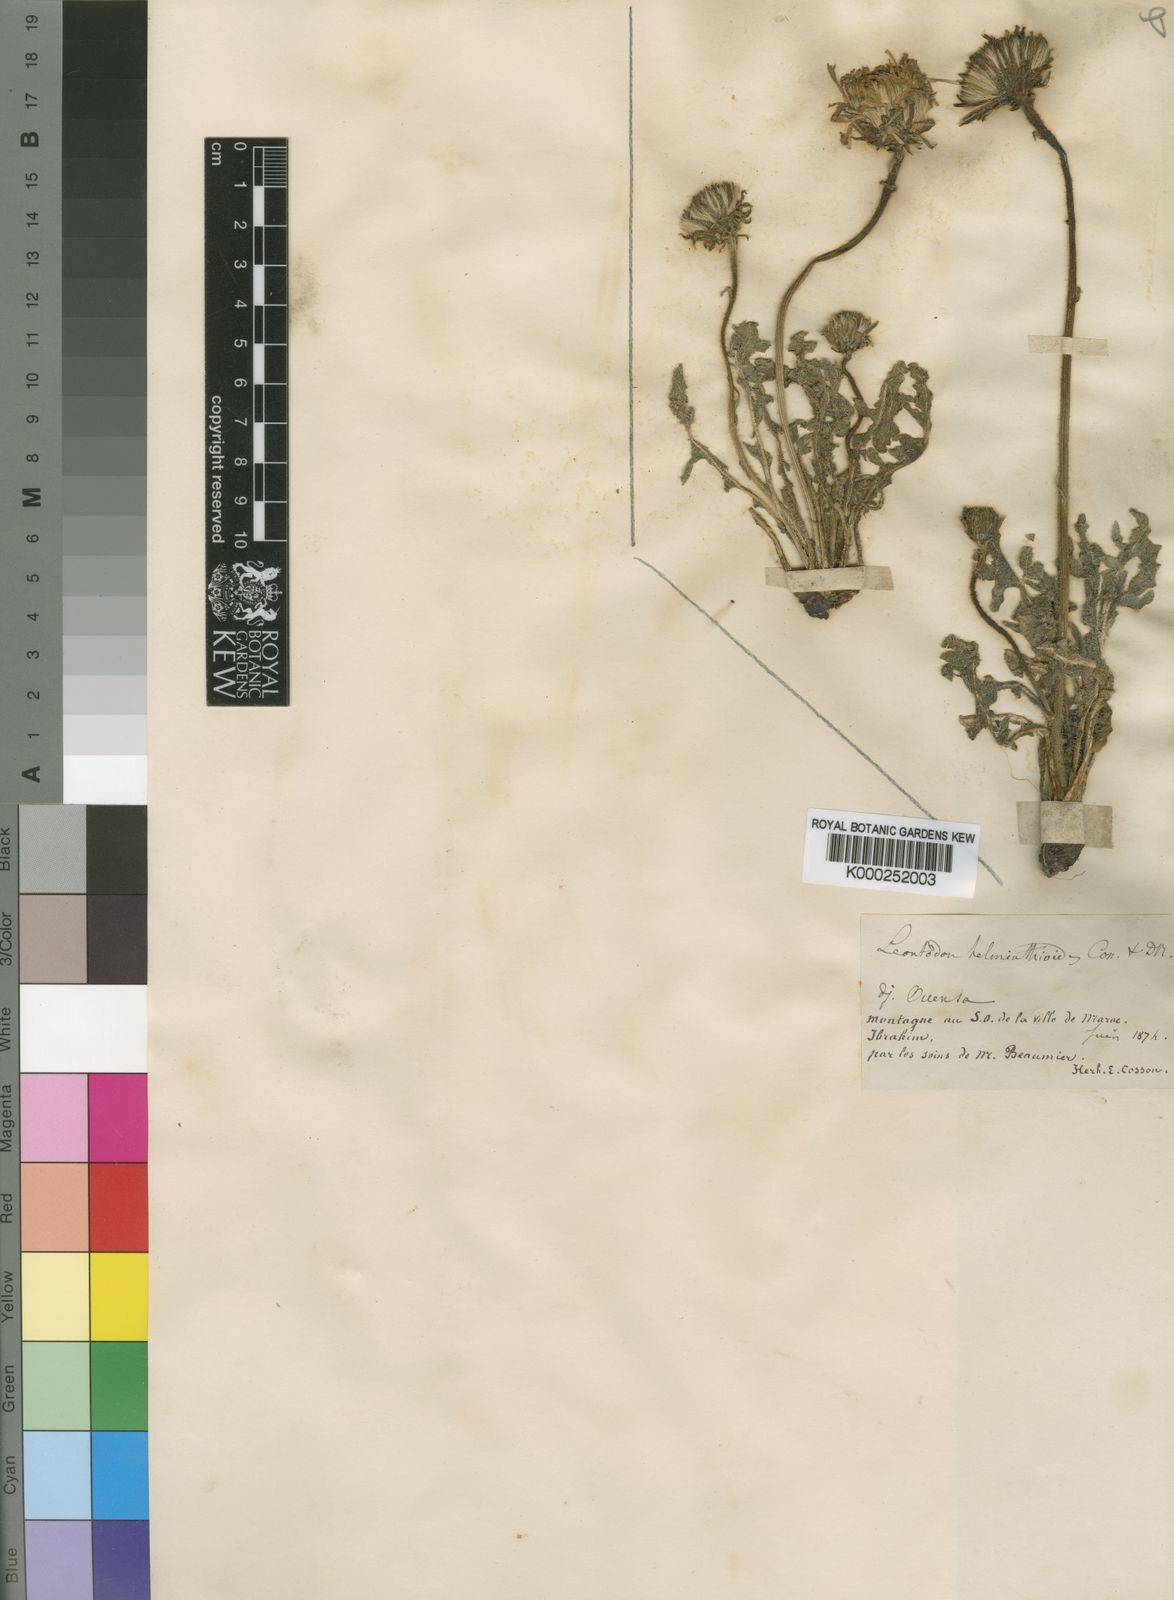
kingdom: Plantae
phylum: Tracheophyta
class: Magnoliopsida
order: Asterales
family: Asteraceae
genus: Leontodon
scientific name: Leontodon
